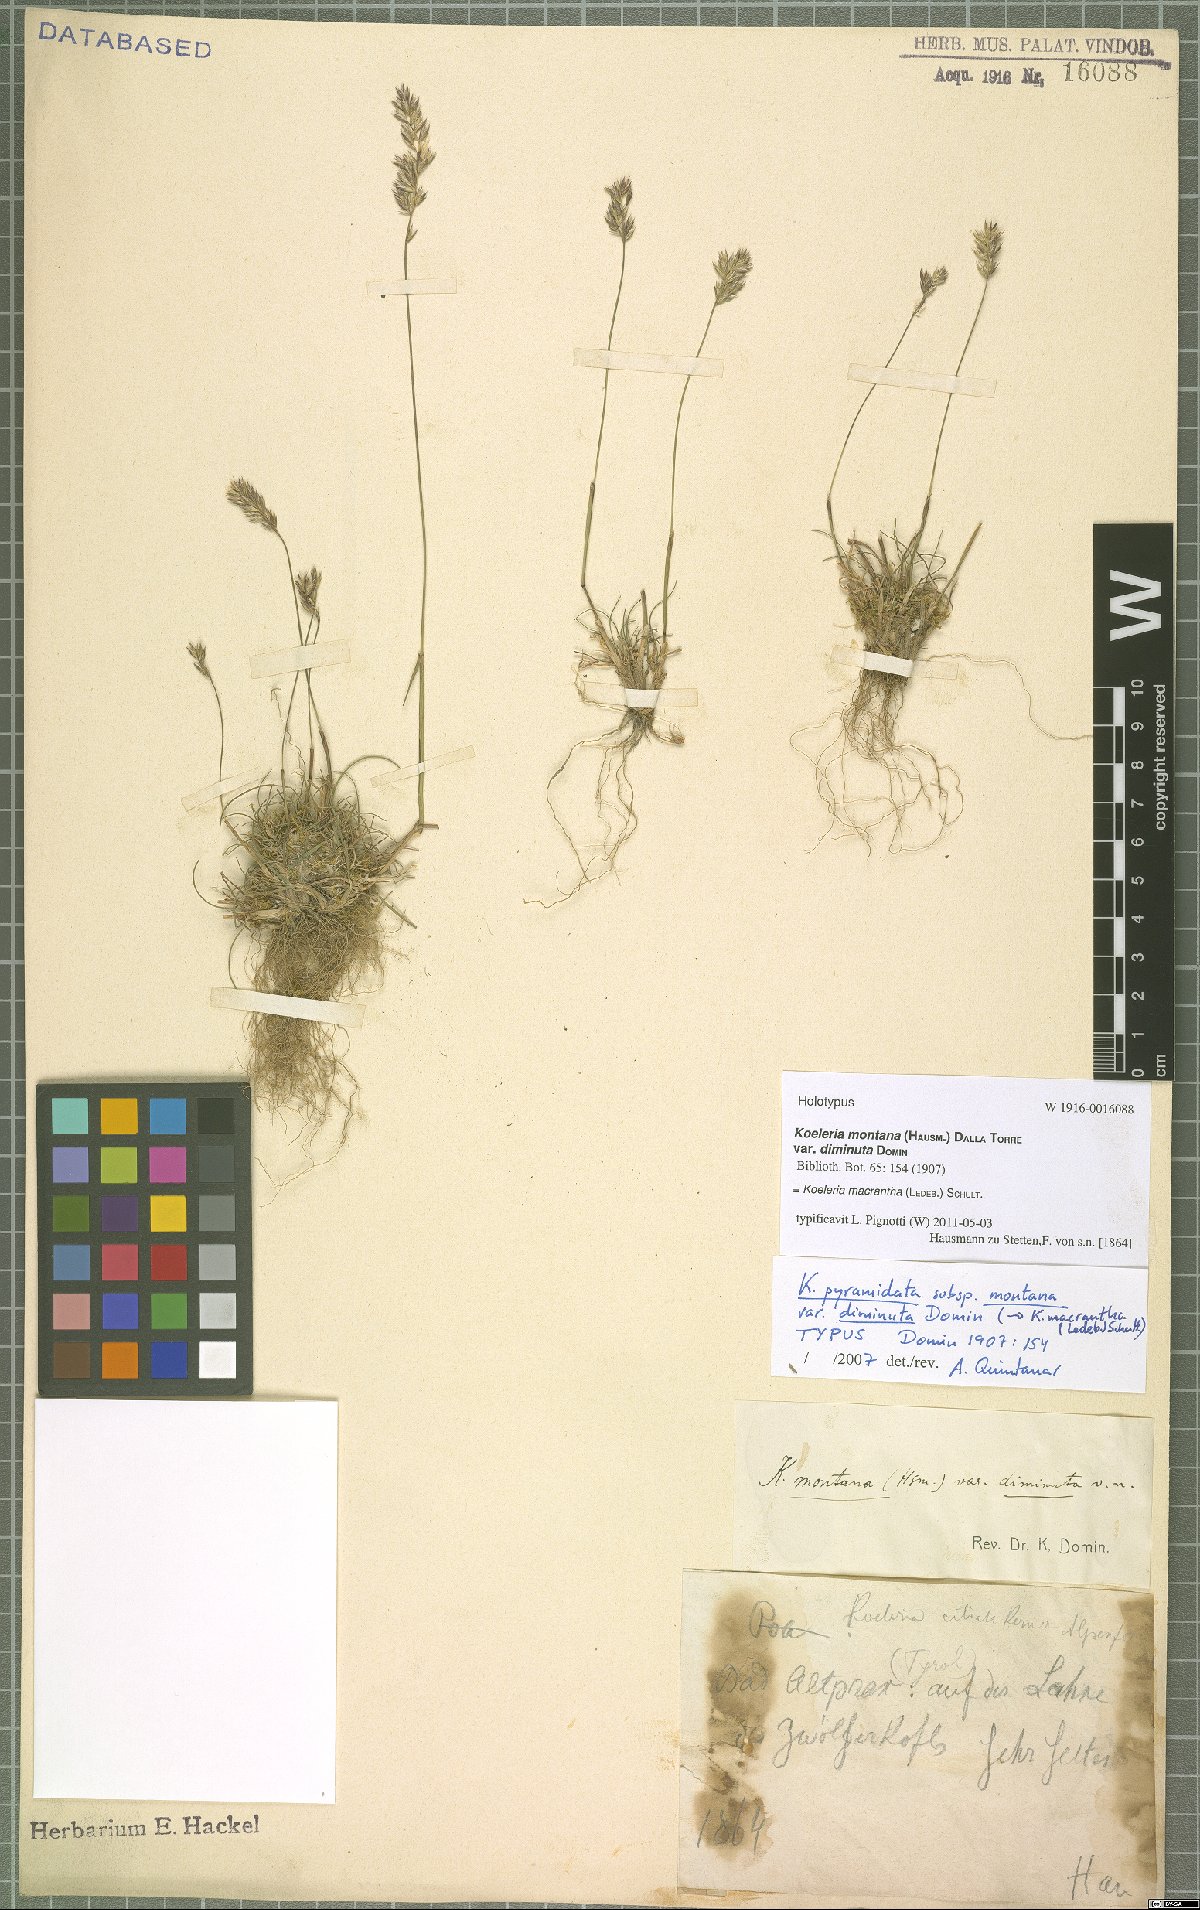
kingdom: Plantae
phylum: Tracheophyta
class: Liliopsida
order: Poales
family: Poaceae
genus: Koeleria
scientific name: Koeleria macrantha
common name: Crested hair-grass
